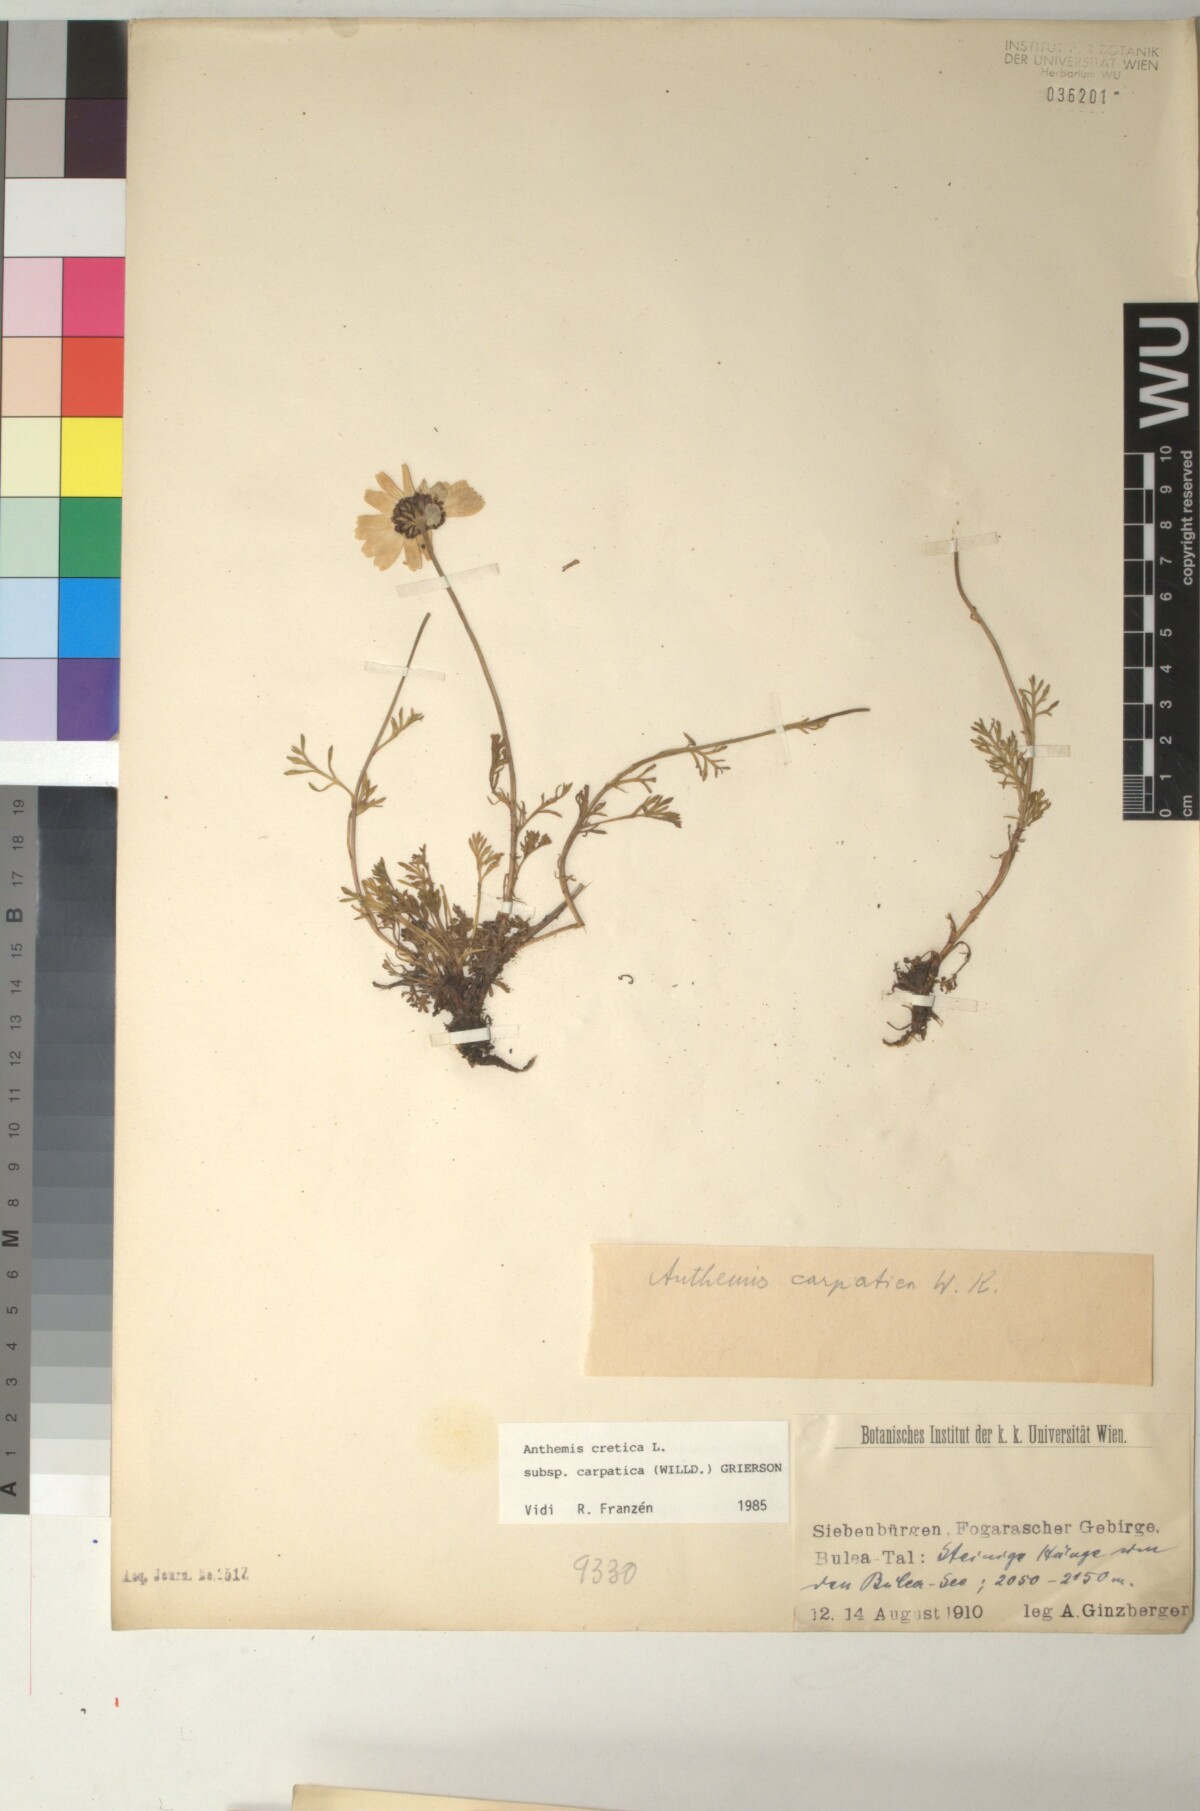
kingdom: Plantae
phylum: Tracheophyta
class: Magnoliopsida
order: Asterales
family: Asteraceae
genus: Anthemis
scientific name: Anthemis cretica
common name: Mountain dog-daisy
